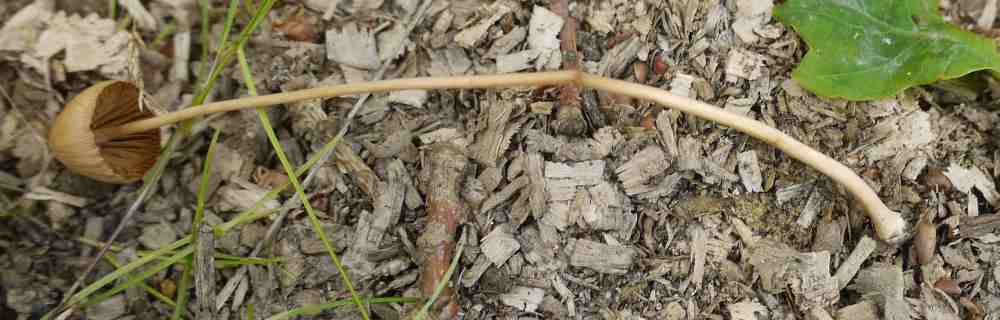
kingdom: Fungi
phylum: Basidiomycota
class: Agaricomycetes
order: Agaricales
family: Bolbitiaceae
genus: Conocybe
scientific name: Conocybe
